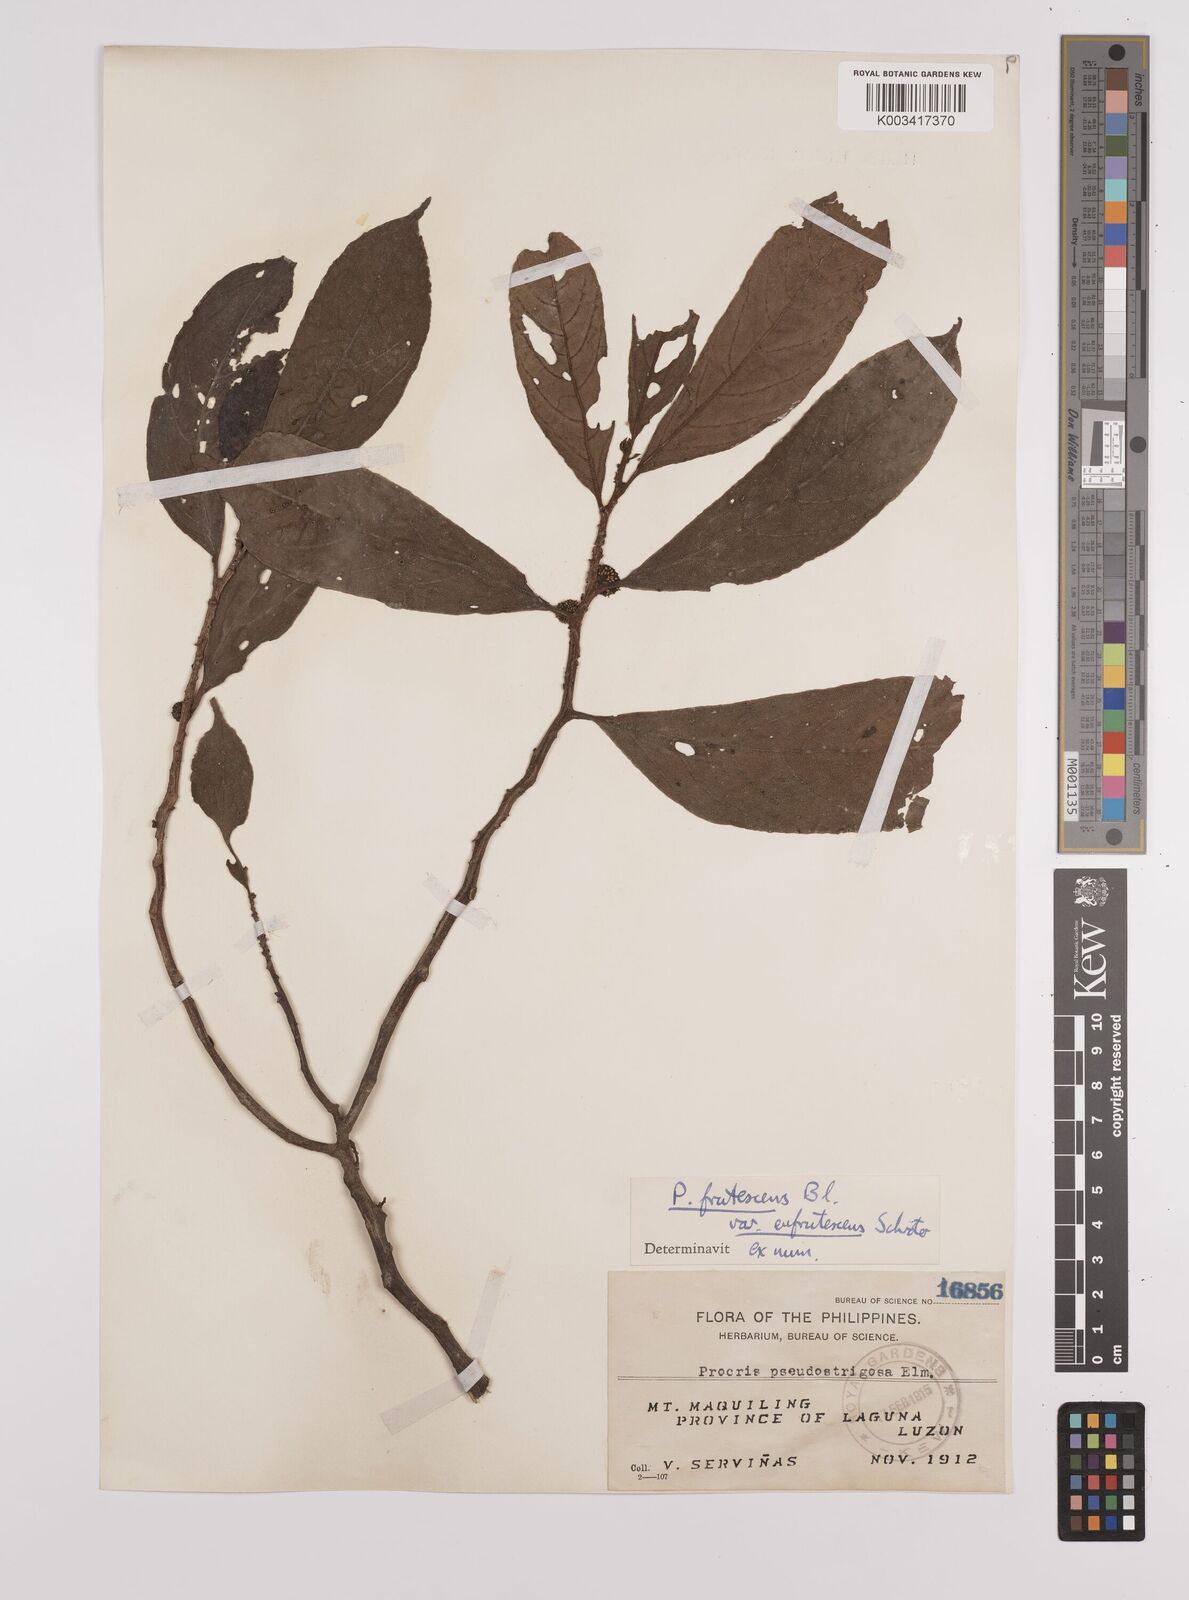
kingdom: Plantae
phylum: Tracheophyta
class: Magnoliopsida
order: Rosales
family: Urticaceae
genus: Procris
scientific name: Procris frutescens
